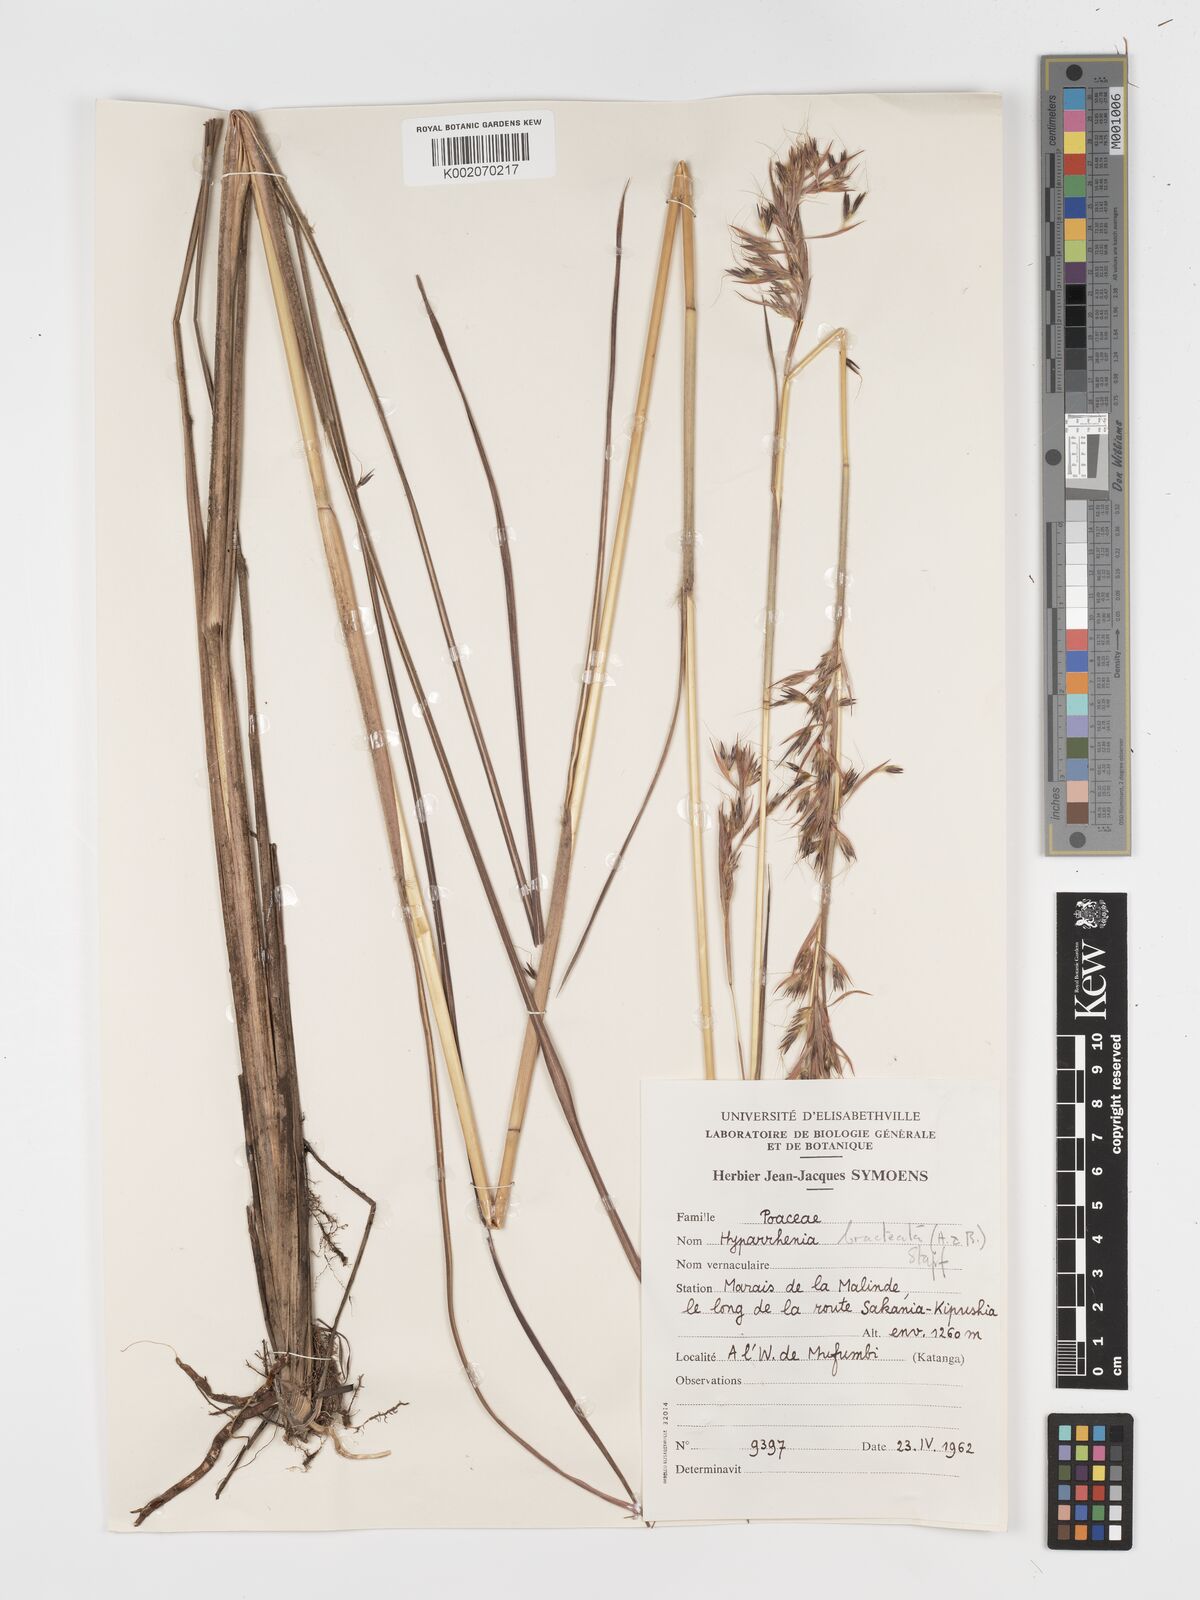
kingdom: Plantae
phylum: Tracheophyta
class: Liliopsida
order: Poales
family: Poaceae
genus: Hyparrhenia
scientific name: Hyparrhenia bracteata
